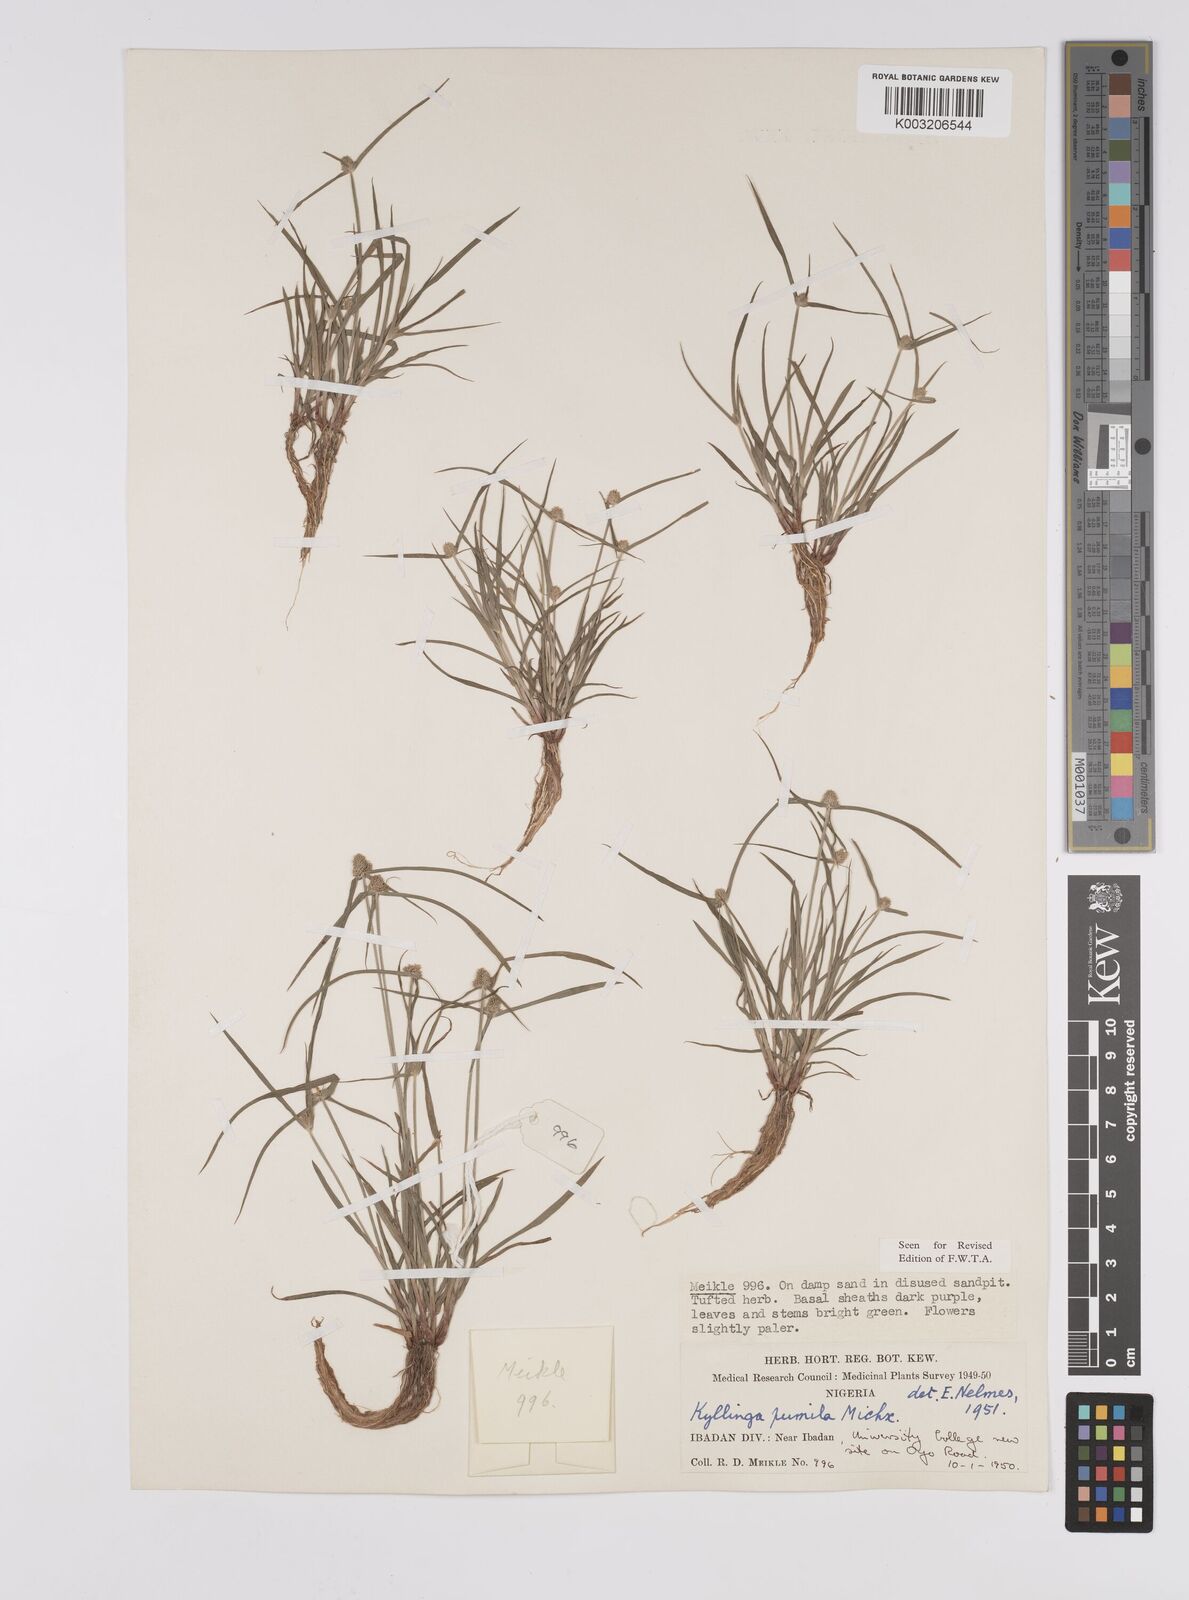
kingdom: Plantae
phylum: Tracheophyta
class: Liliopsida
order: Poales
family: Cyperaceae
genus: Cyperus
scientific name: Cyperus
